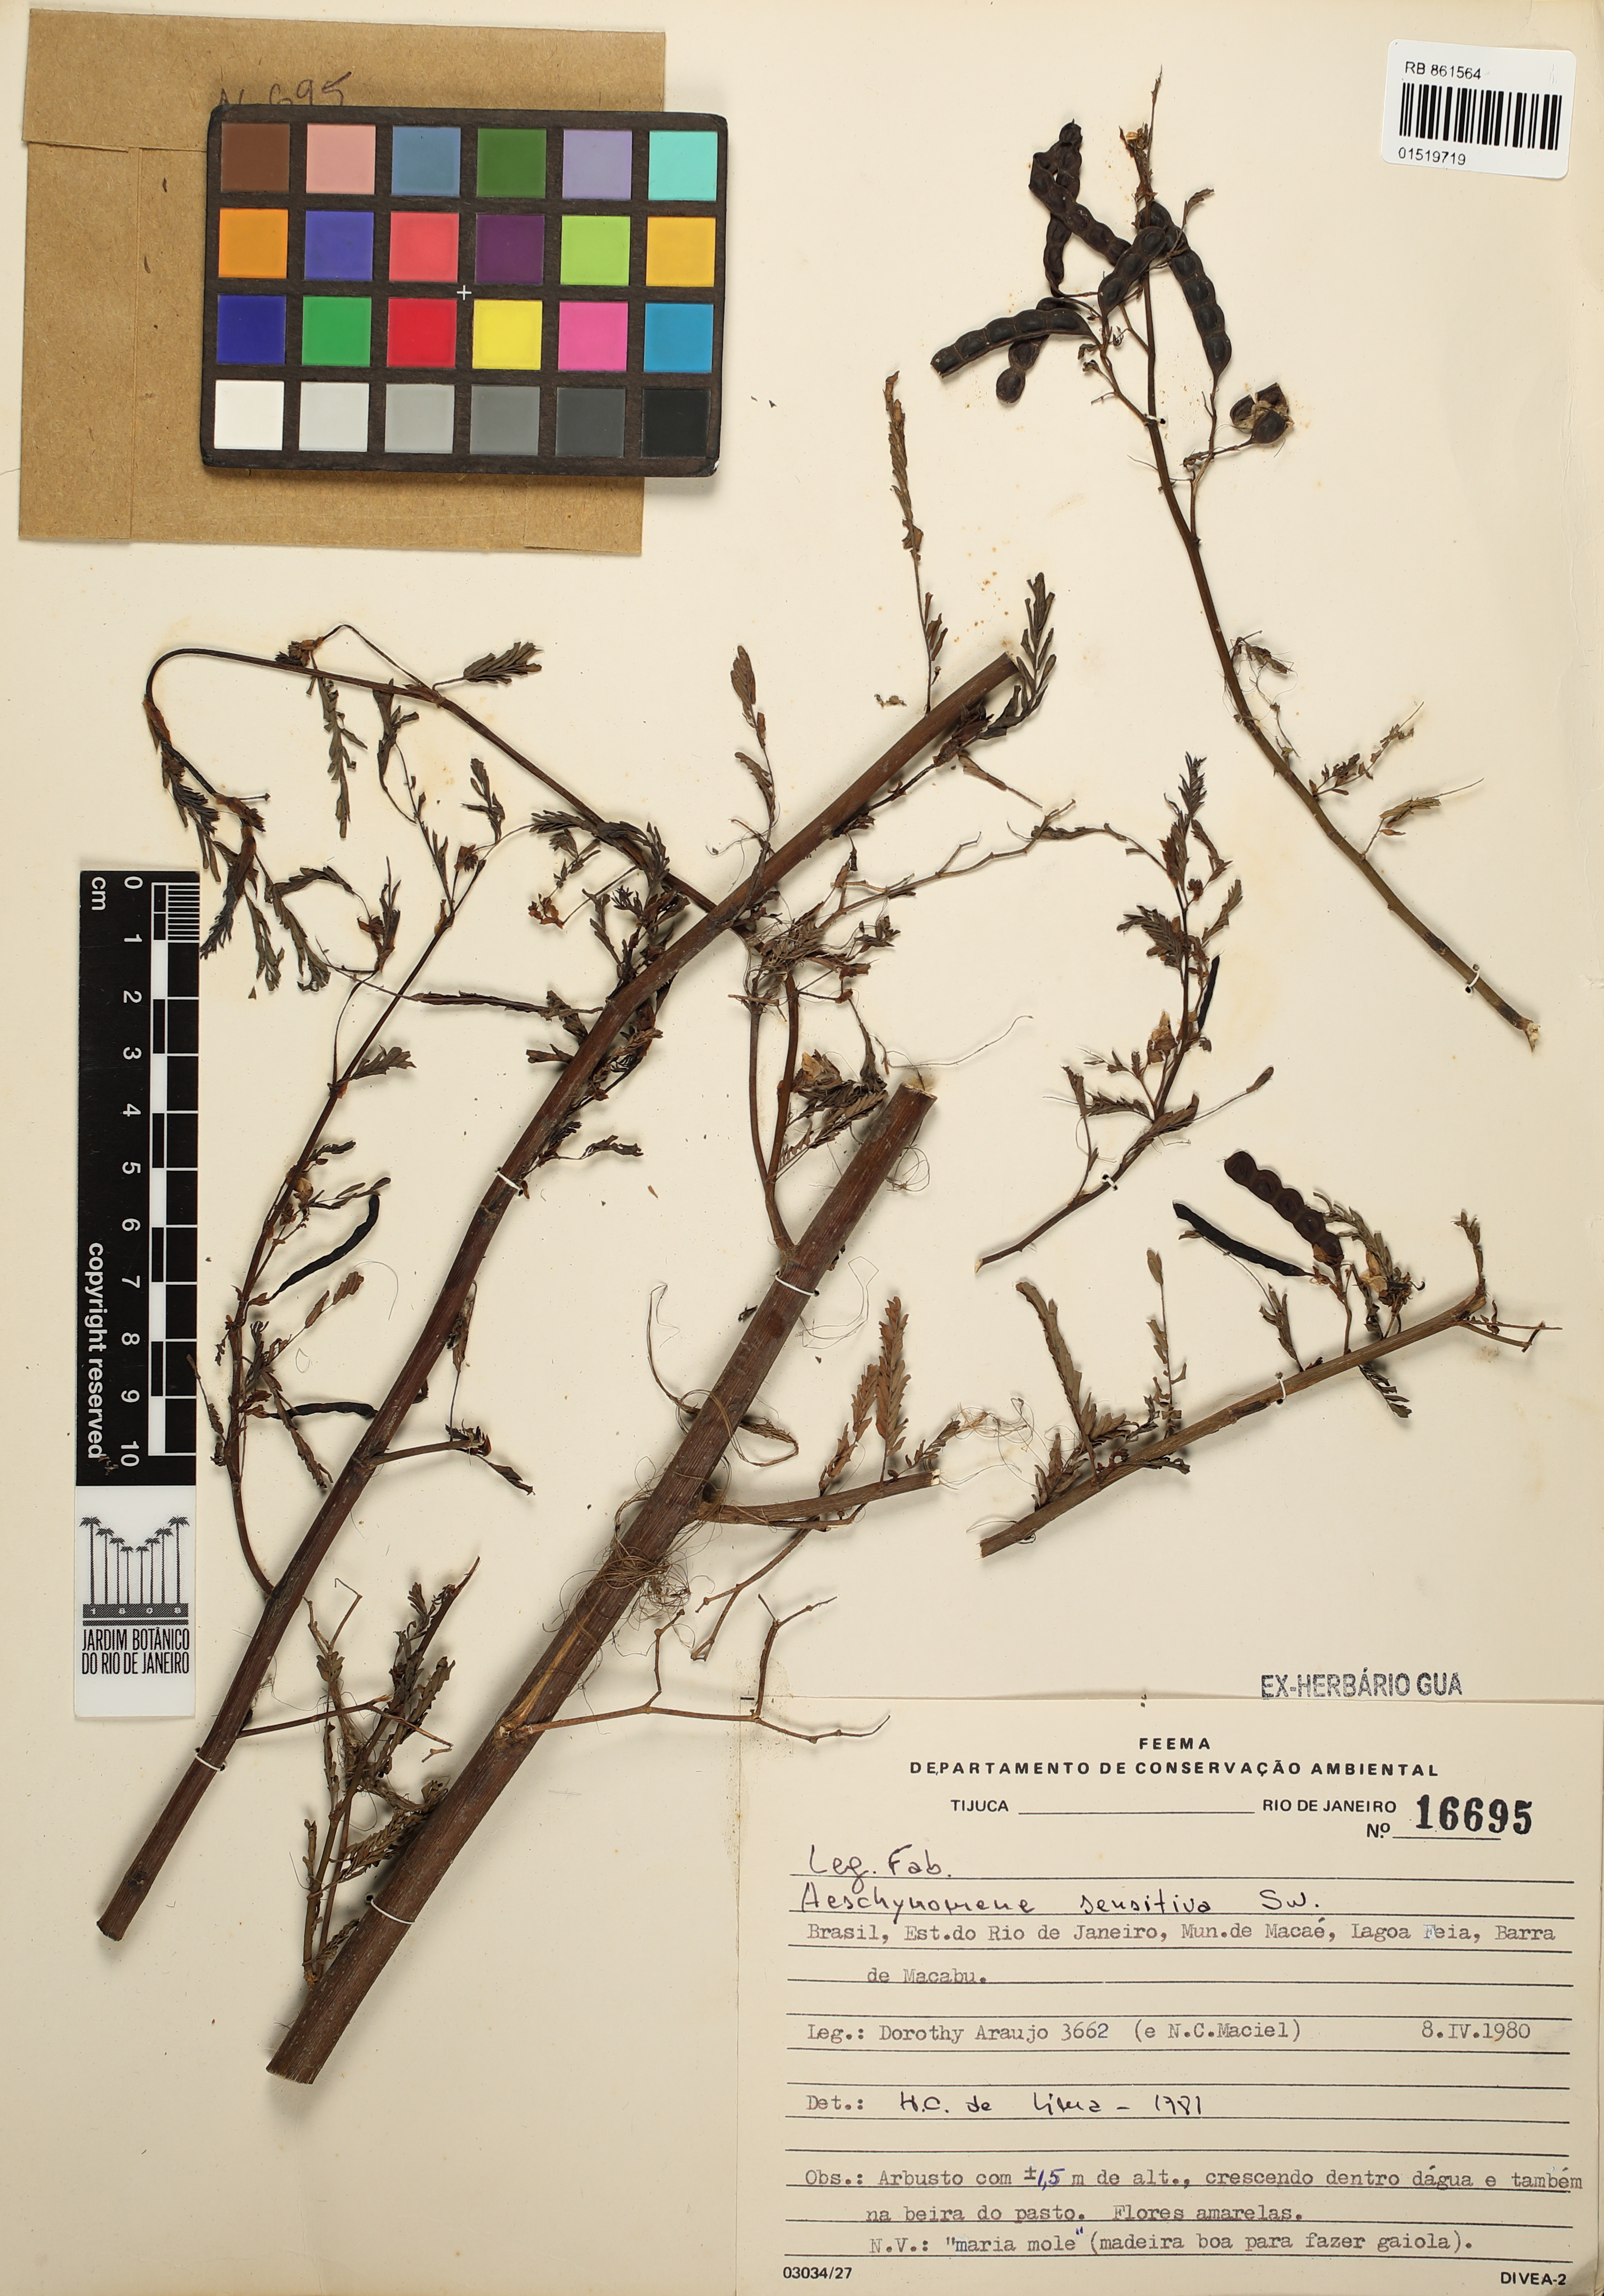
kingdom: Plantae
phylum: Tracheophyta
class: Magnoliopsida
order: Fabales
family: Fabaceae
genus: Aeschynomene
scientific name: Aeschynomene sensitiva
